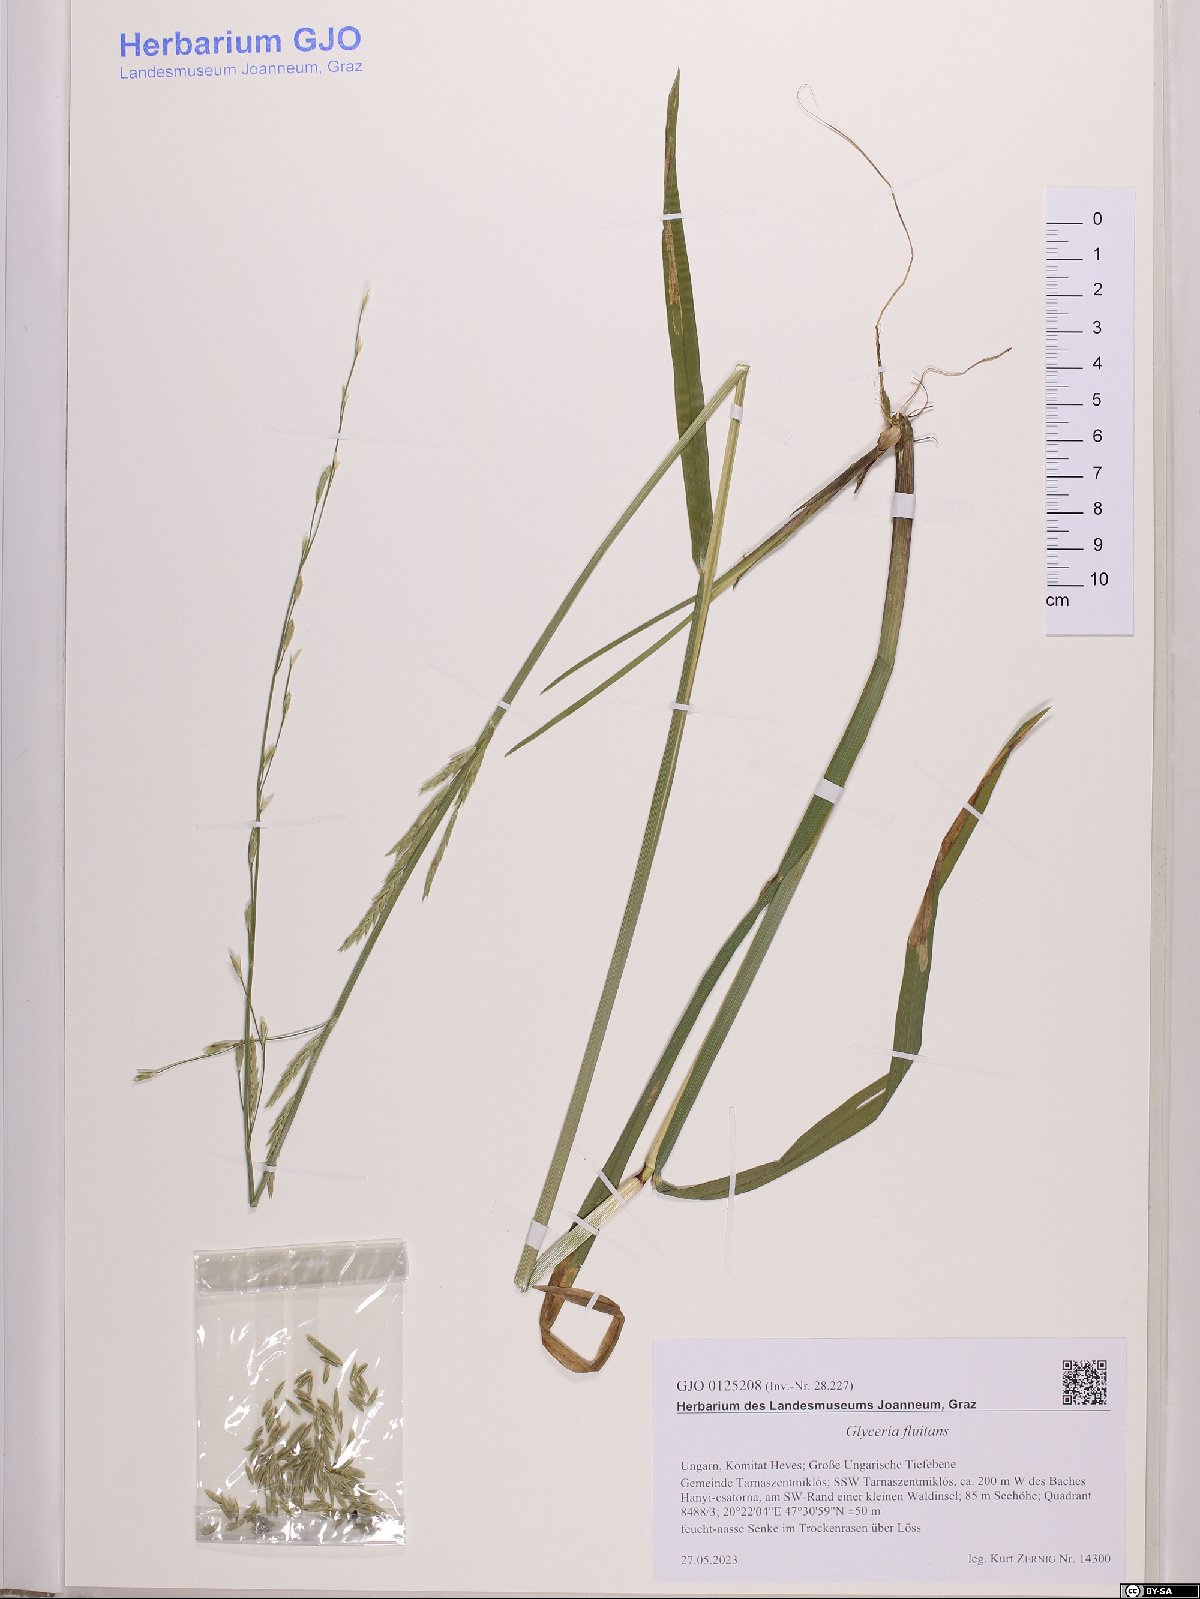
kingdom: Plantae
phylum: Tracheophyta
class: Liliopsida
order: Poales
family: Poaceae
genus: Glyceria
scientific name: Glyceria fluitans
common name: Floating sweet-grass
